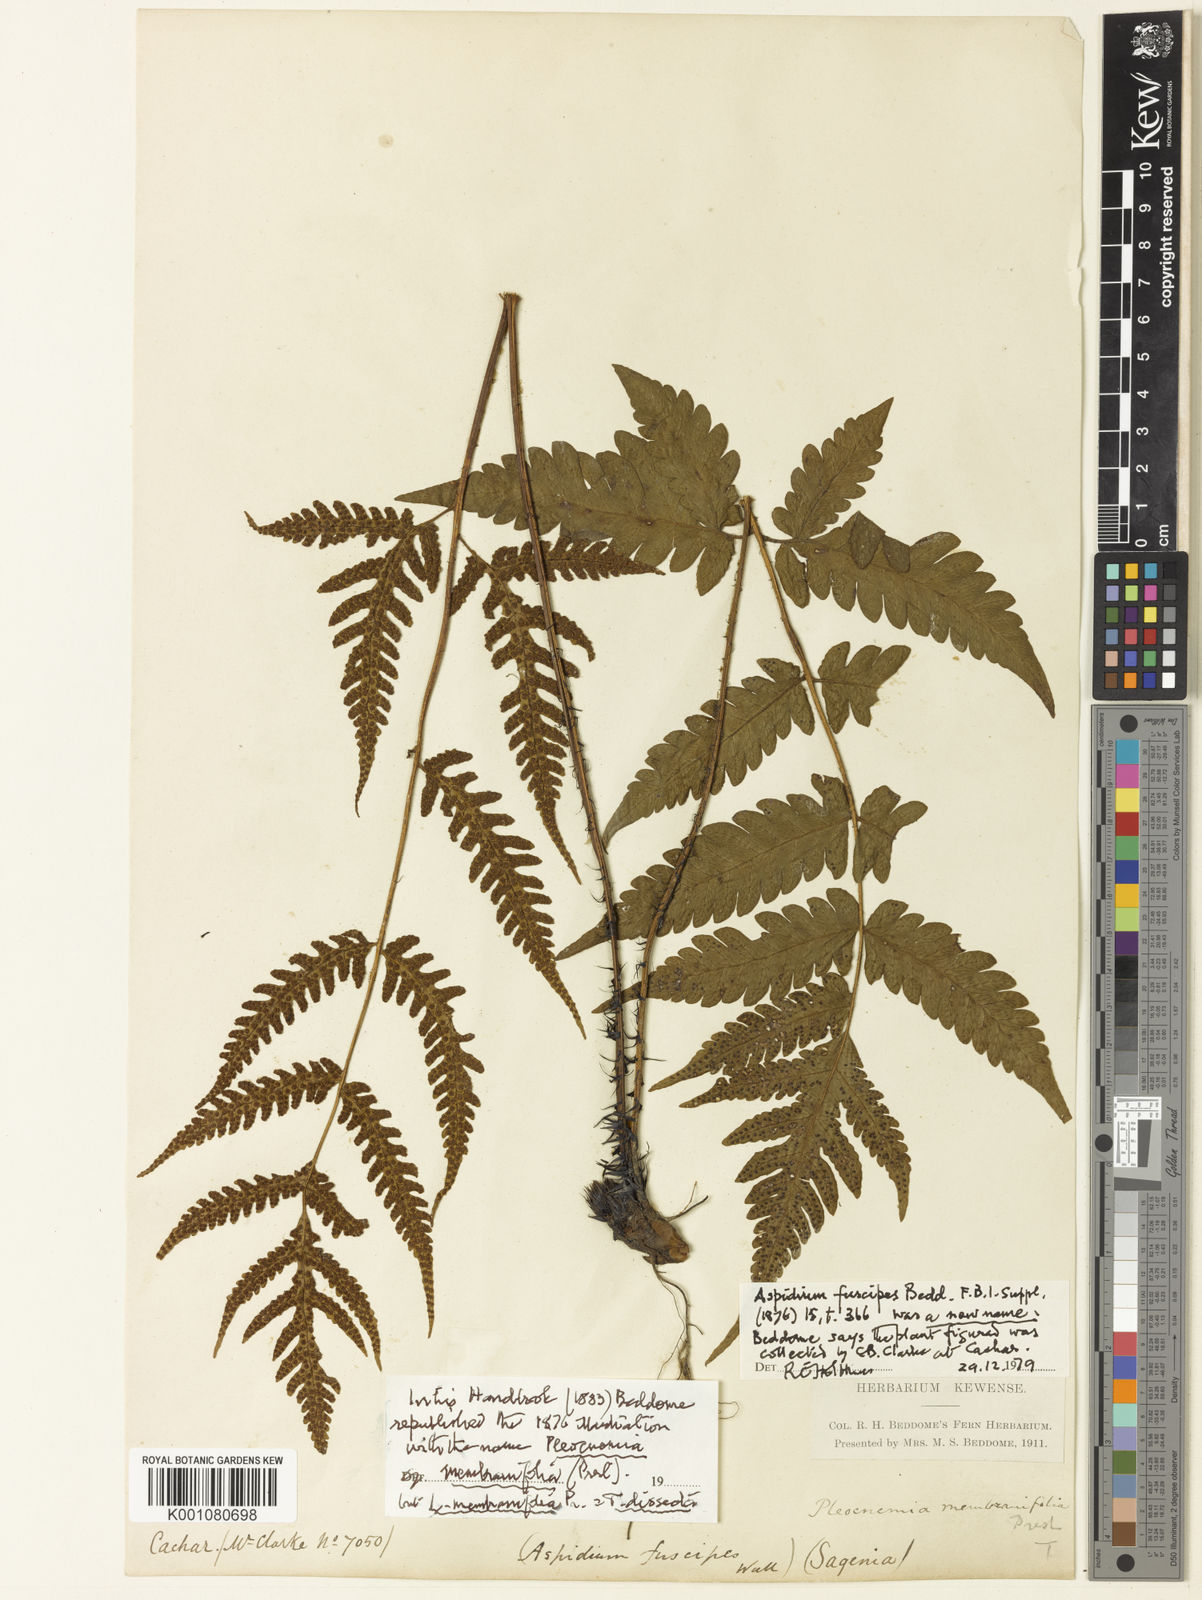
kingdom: Plantae
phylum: Tracheophyta
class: Polypodiopsida
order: Polypodiales
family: Tectariaceae
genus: Tectaria
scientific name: Tectaria fuscipes
